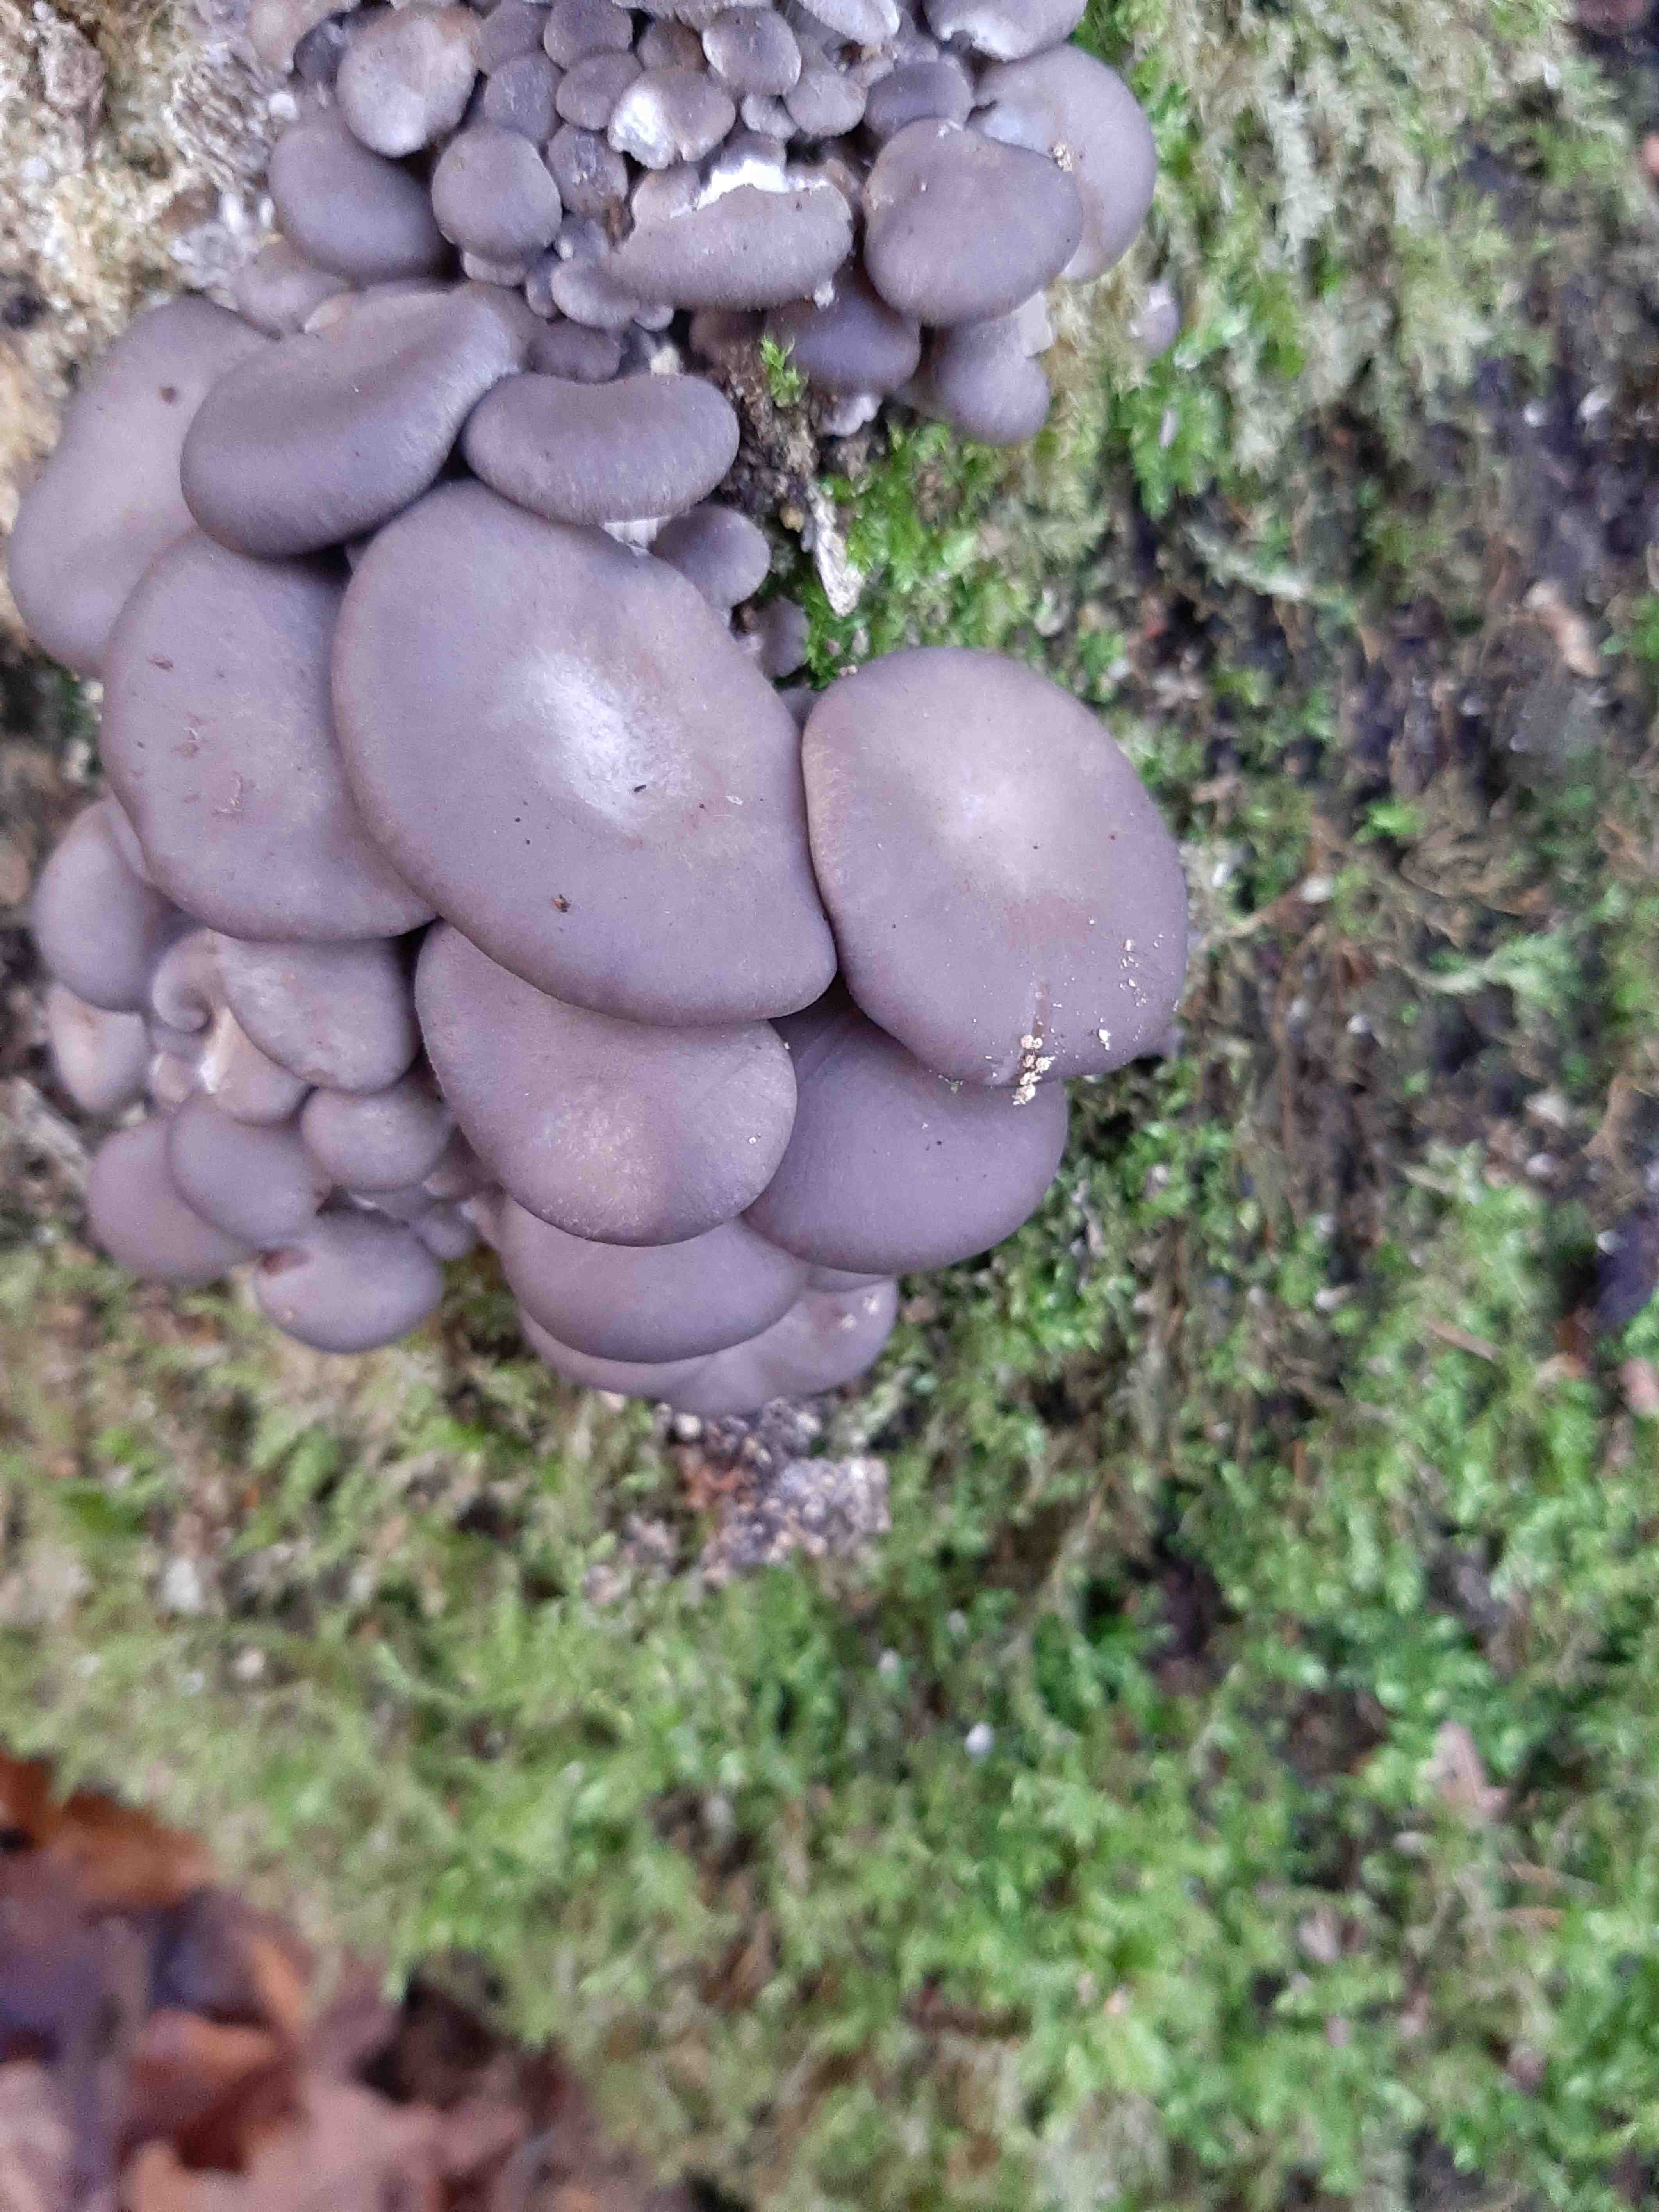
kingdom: Fungi
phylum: Basidiomycota
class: Agaricomycetes
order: Agaricales
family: Pleurotaceae
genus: Pleurotus
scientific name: Pleurotus ostreatus
